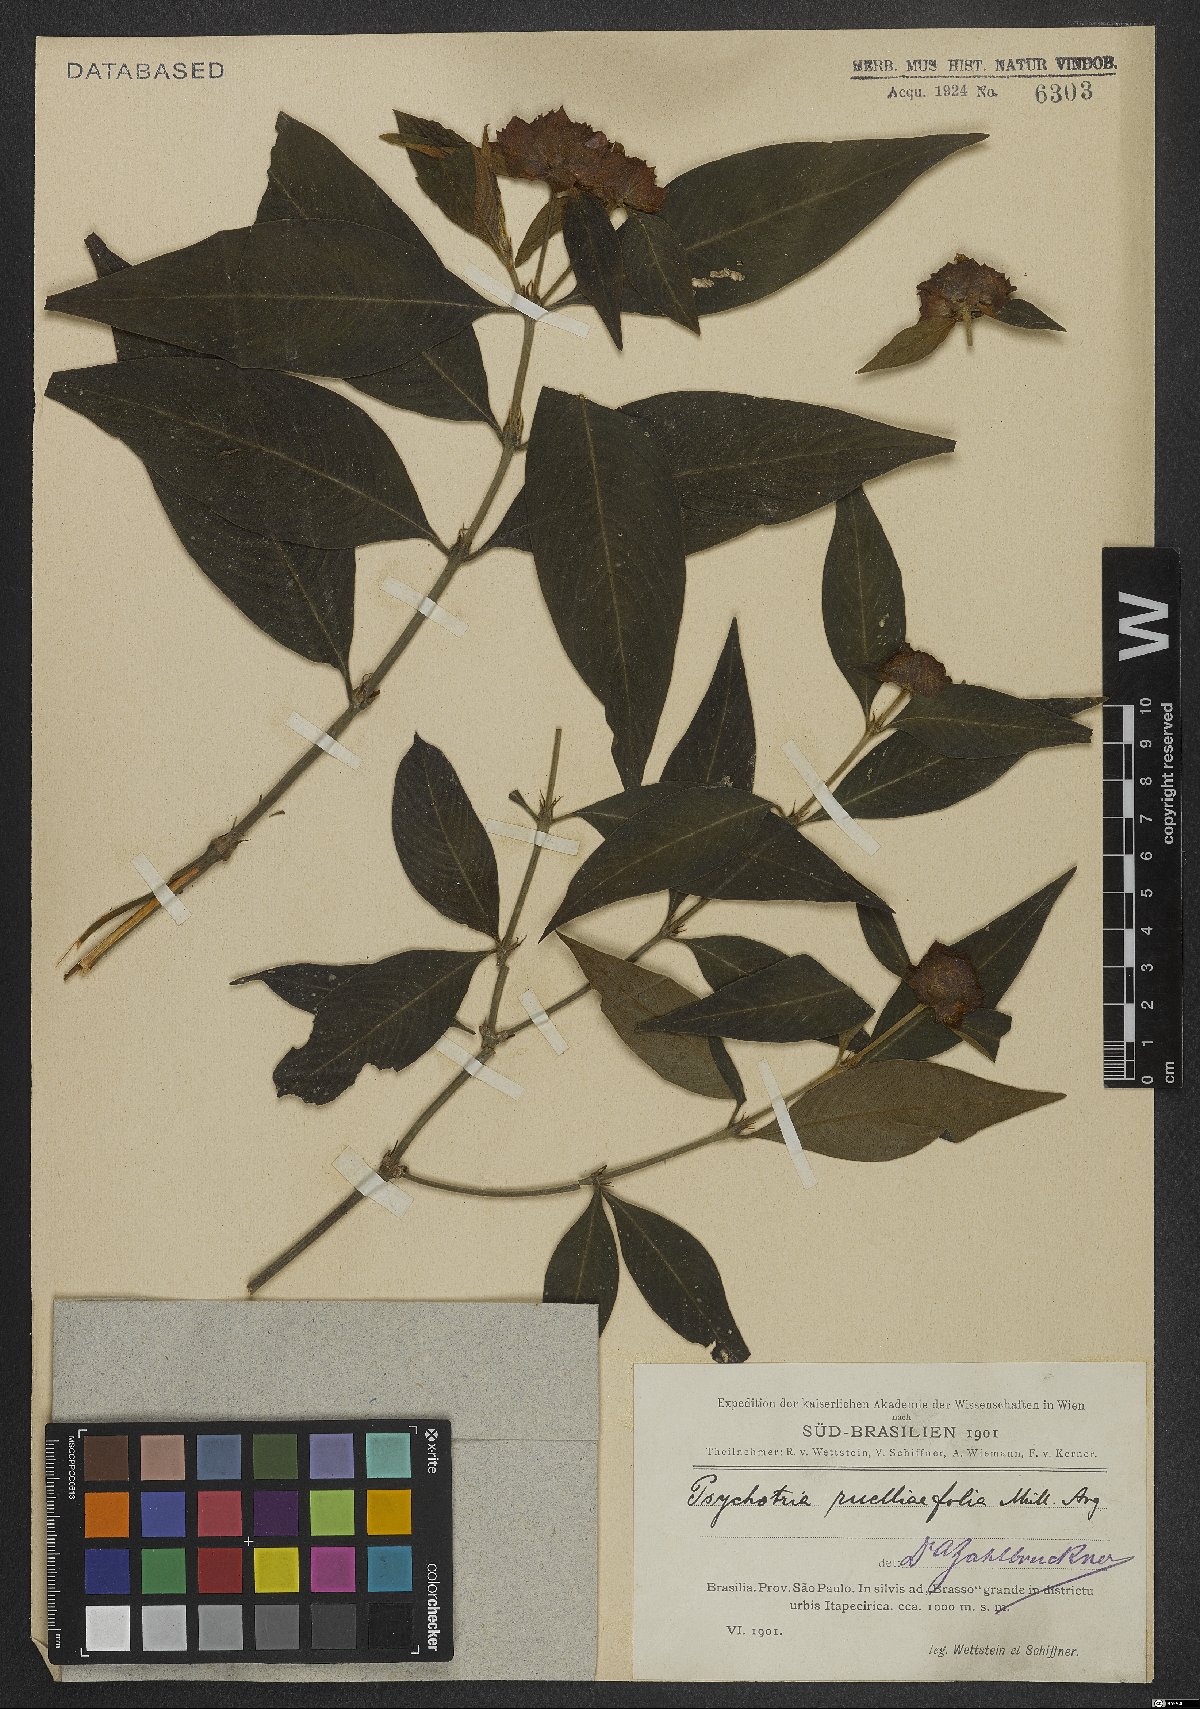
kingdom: Plantae
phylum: Tracheophyta
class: Magnoliopsida
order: Gentianales
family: Rubiaceae
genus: Palicourea
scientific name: Palicourea ruelliifolia
